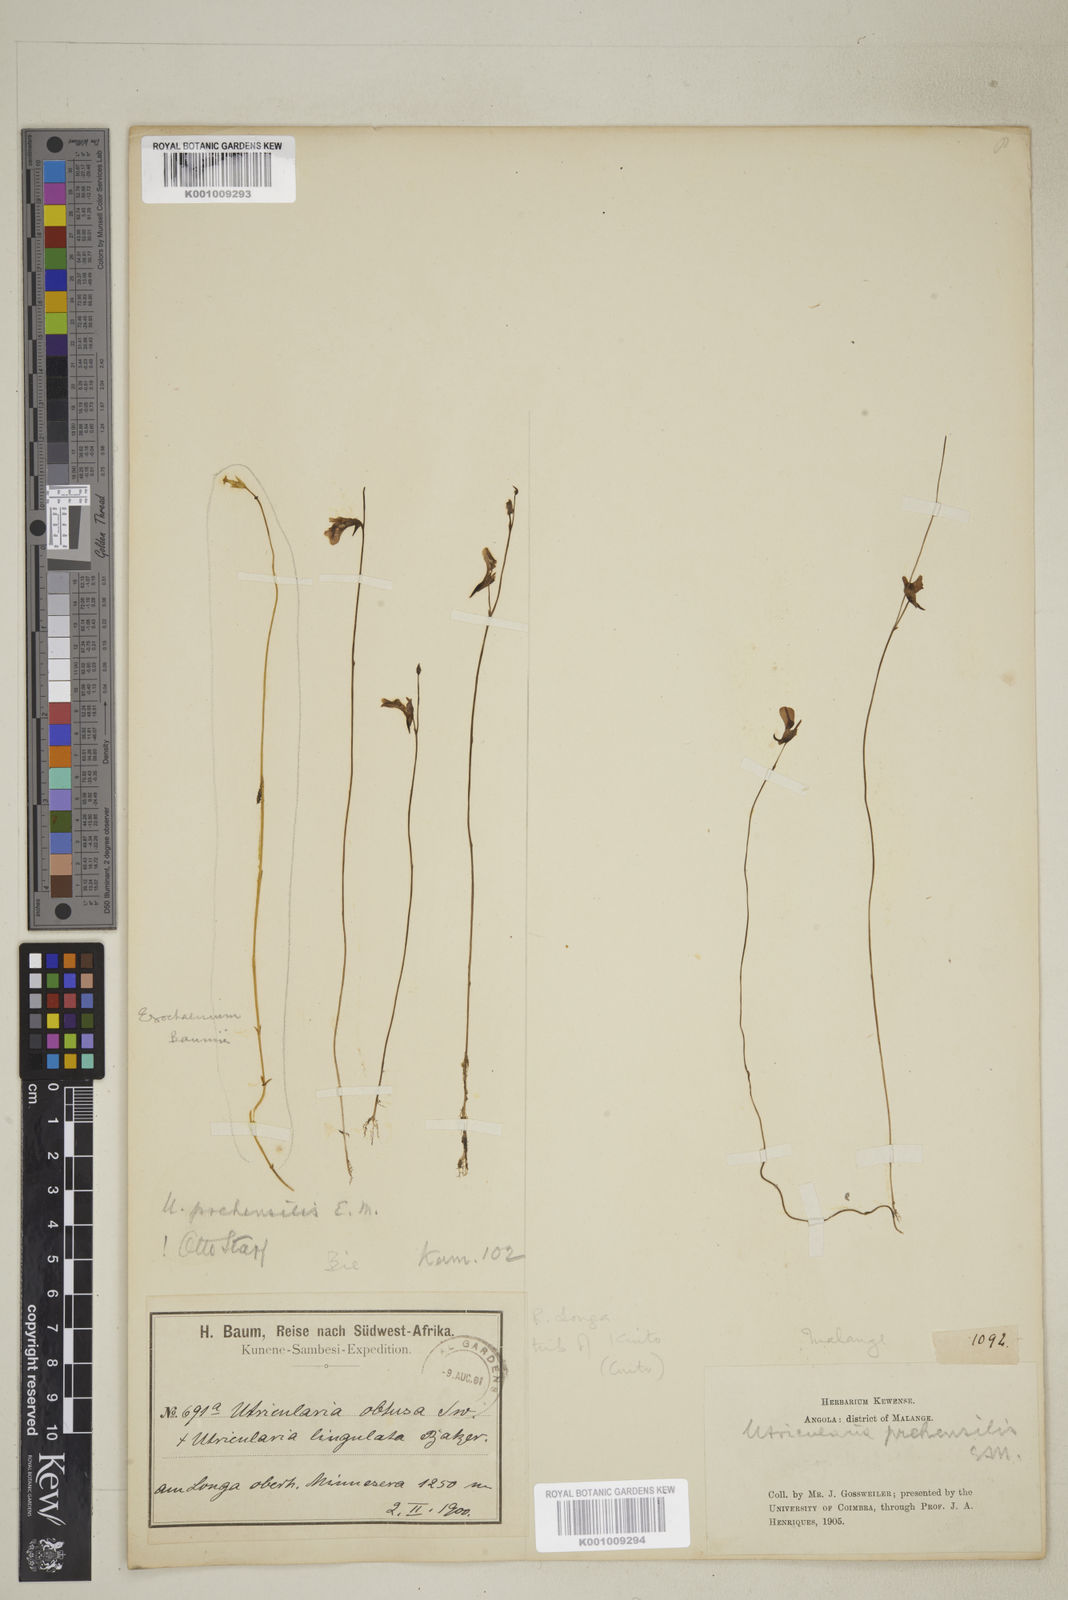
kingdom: Plantae
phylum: Tracheophyta
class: Magnoliopsida
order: Lamiales
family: Lentibulariaceae
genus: Utricularia
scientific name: Utricularia prehensilis
